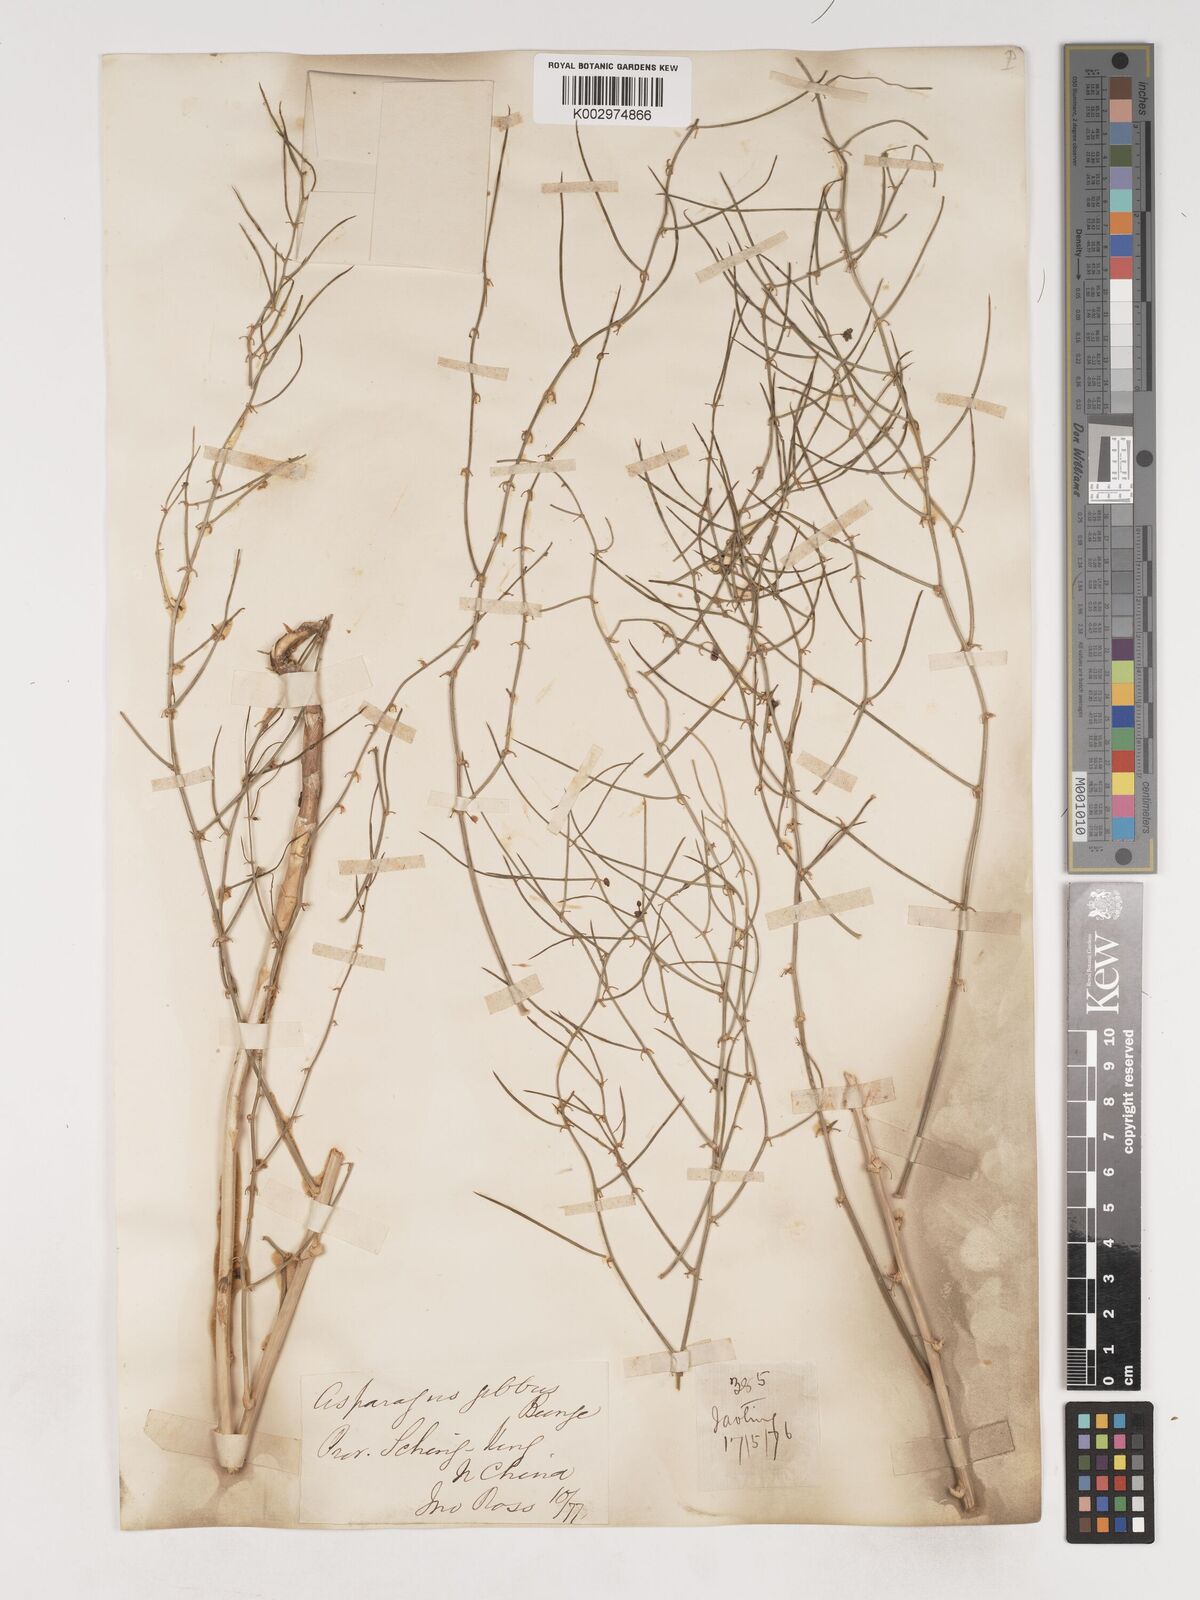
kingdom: Plantae
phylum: Tracheophyta
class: Liliopsida
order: Asparagales
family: Asparagaceae
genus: Asparagus
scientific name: Asparagus dauricus
